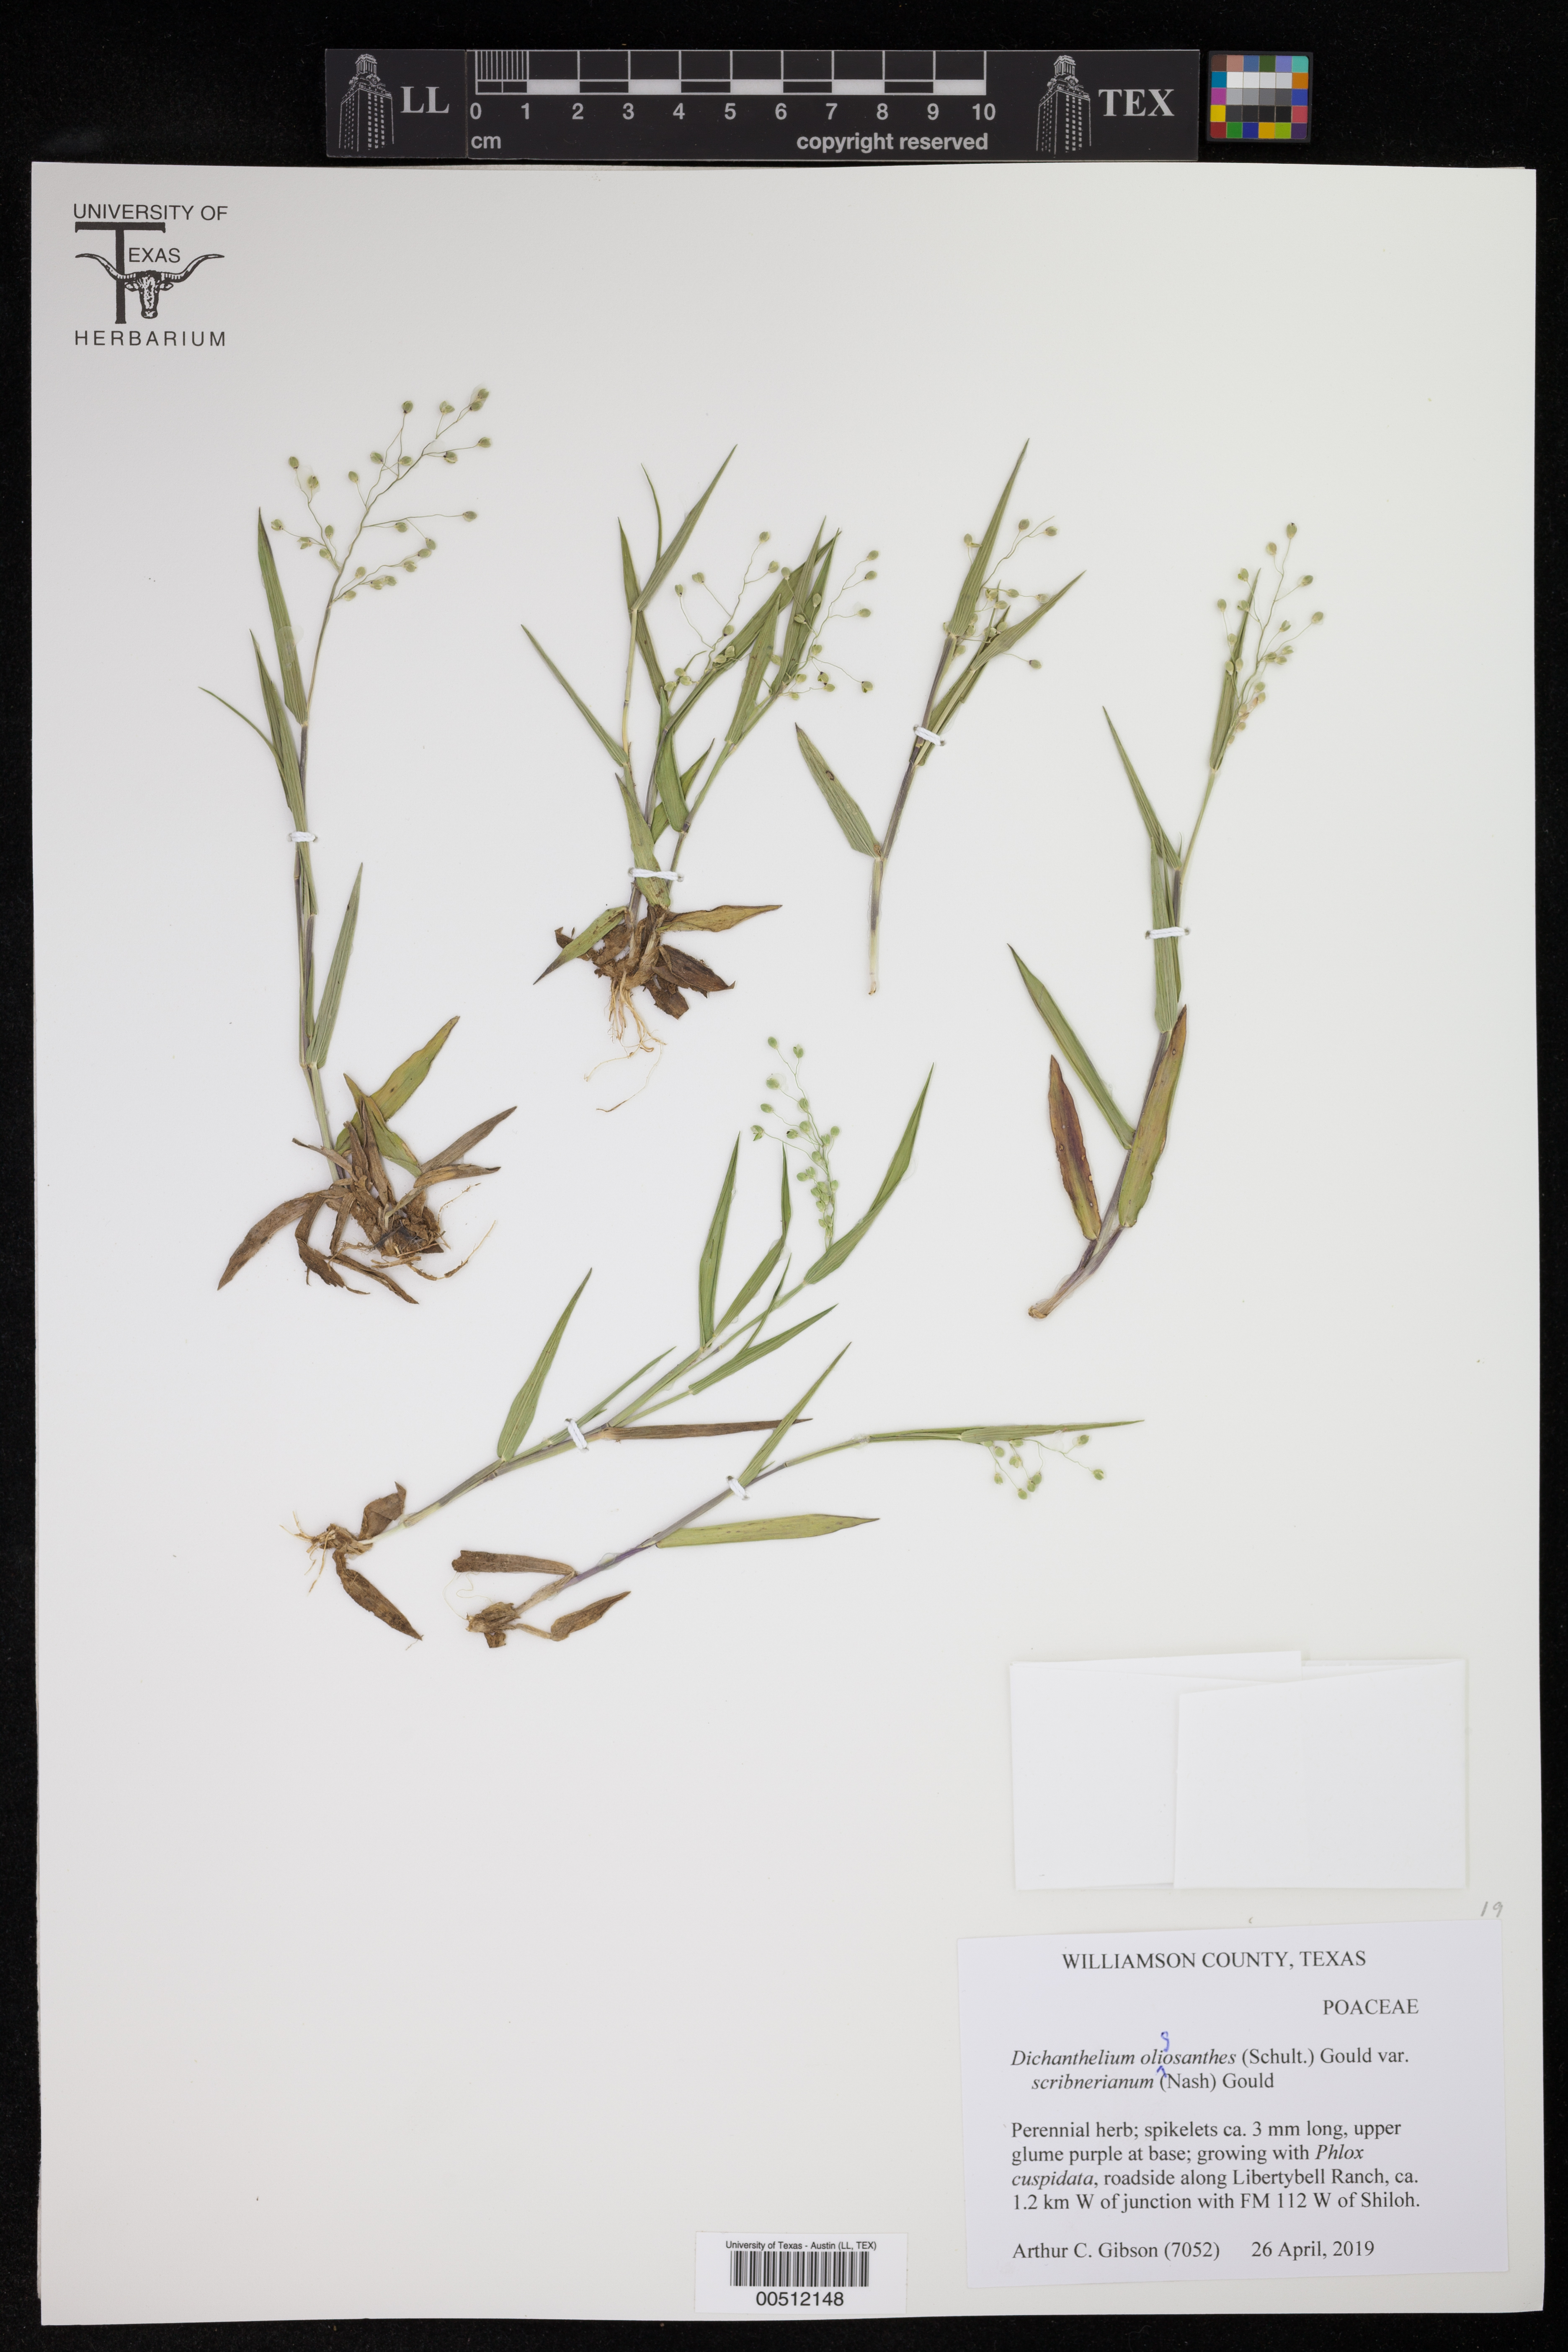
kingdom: Plantae
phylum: Tracheophyta
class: Liliopsida
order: Poales
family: Poaceae
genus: Dichanthelium
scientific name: Dichanthelium scribnerianum
